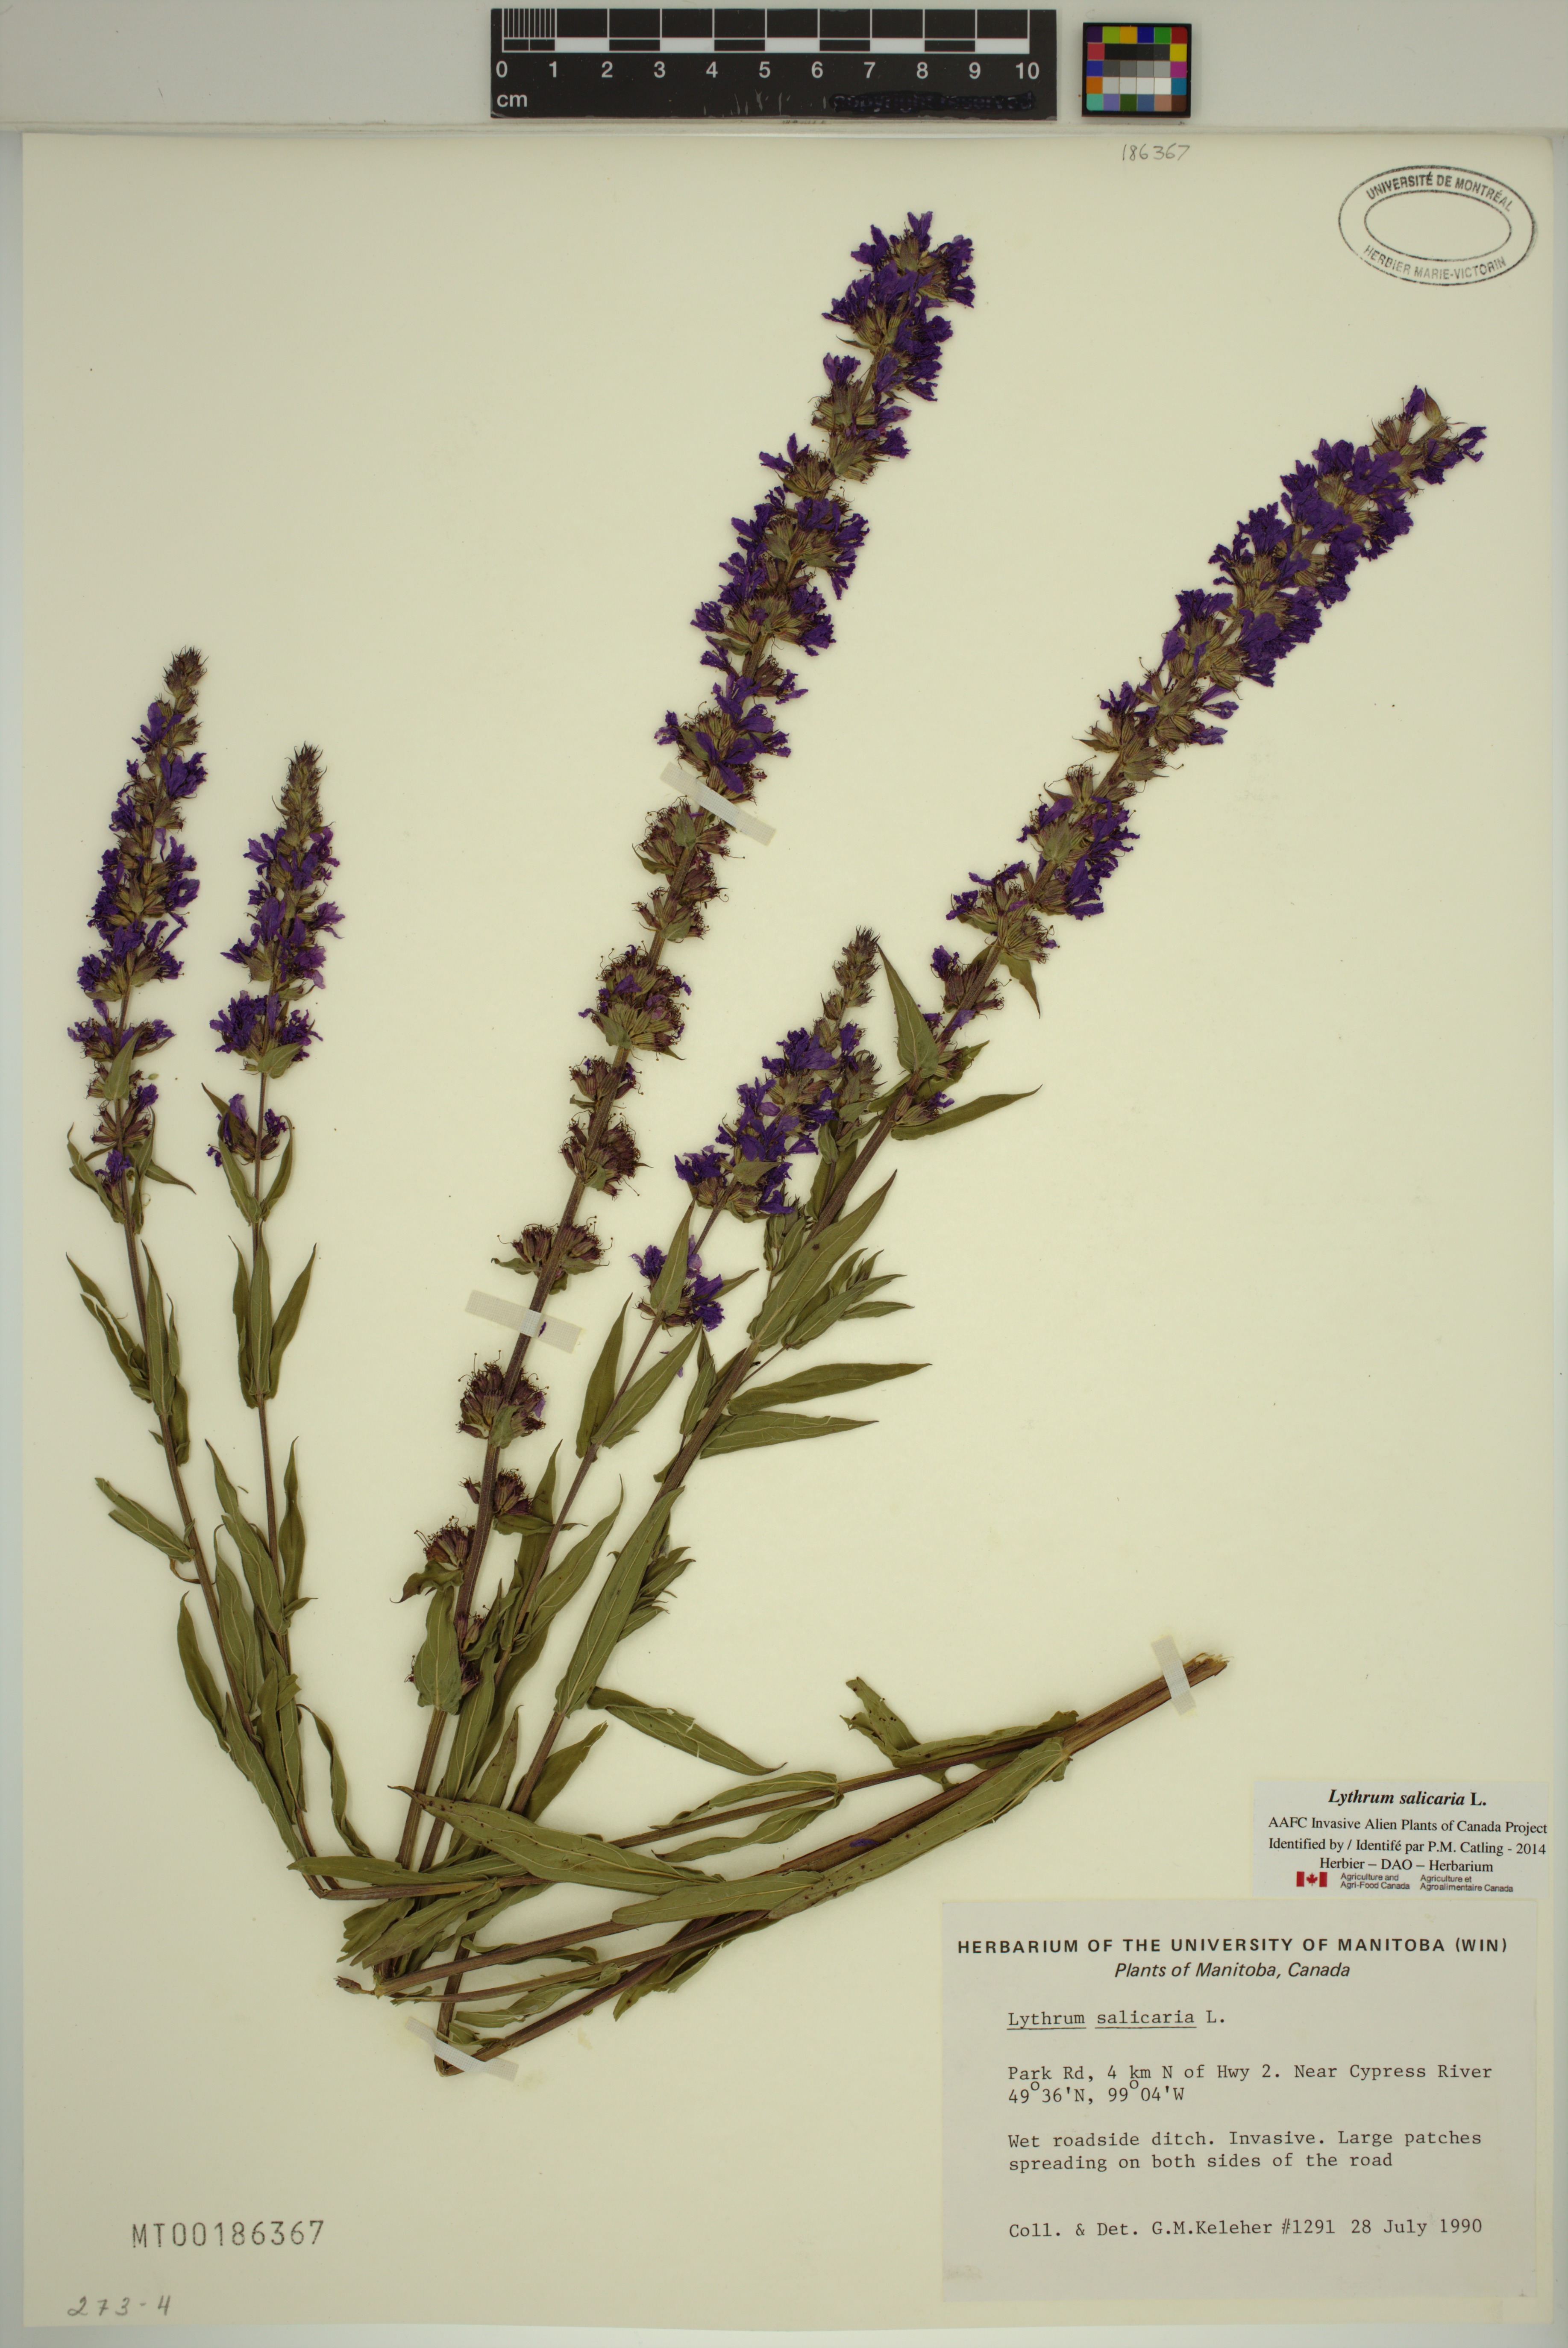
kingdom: Plantae
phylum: Tracheophyta
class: Magnoliopsida
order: Myrtales
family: Lythraceae
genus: Lythrum
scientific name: Lythrum salicaria
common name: Purple loosestrife
